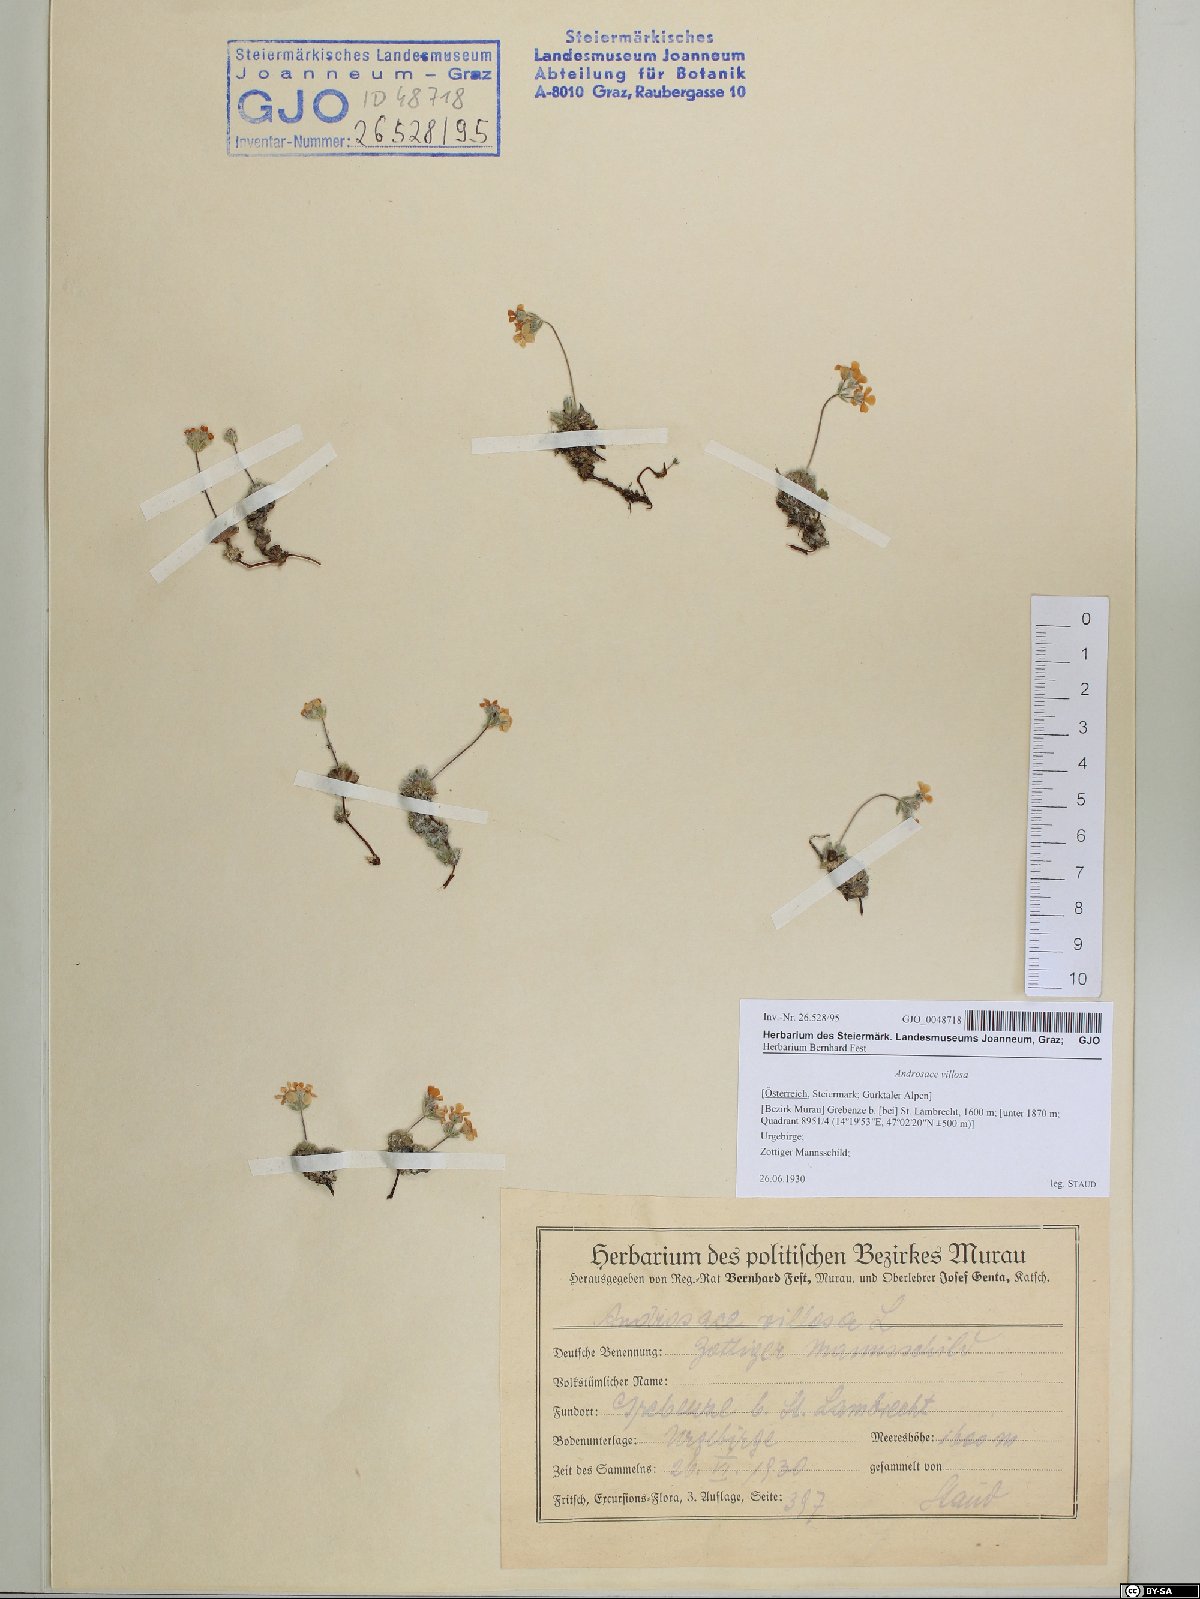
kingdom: Plantae
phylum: Tracheophyta
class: Magnoliopsida
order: Ericales
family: Primulaceae
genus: Androsace
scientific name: Androsace villosa
